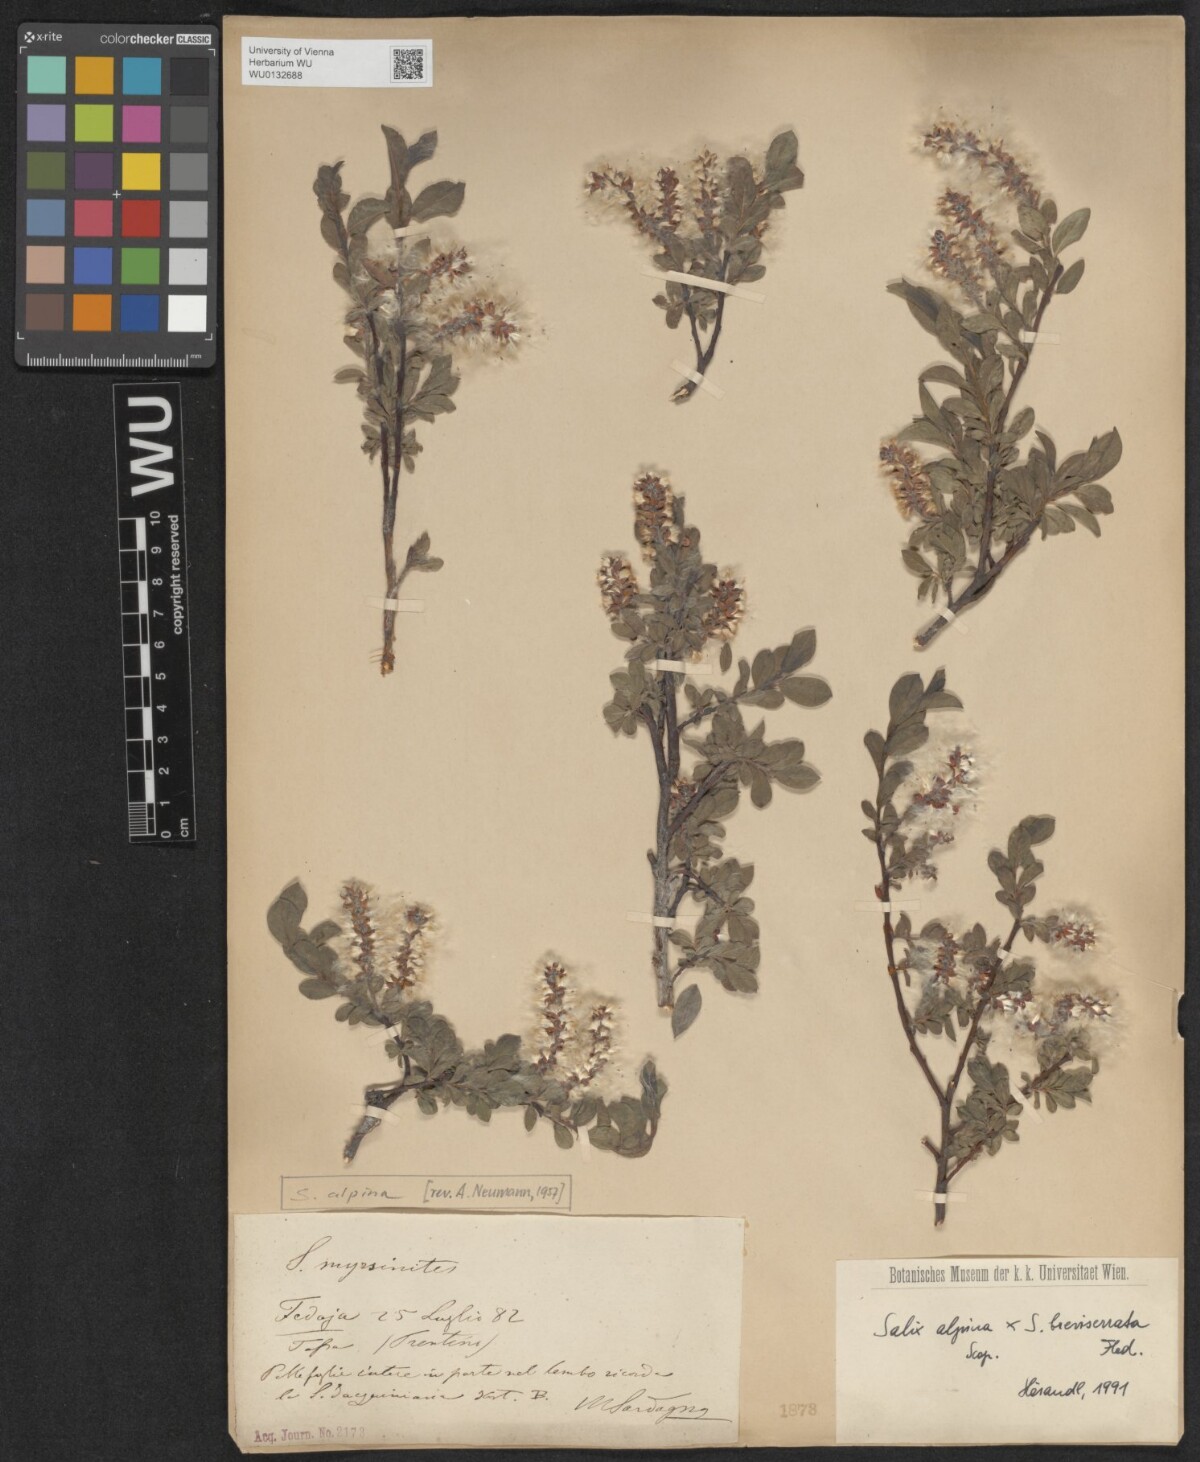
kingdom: Plantae
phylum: Tracheophyta
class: Magnoliopsida
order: Malpighiales
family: Salicaceae
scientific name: Salicaceae
